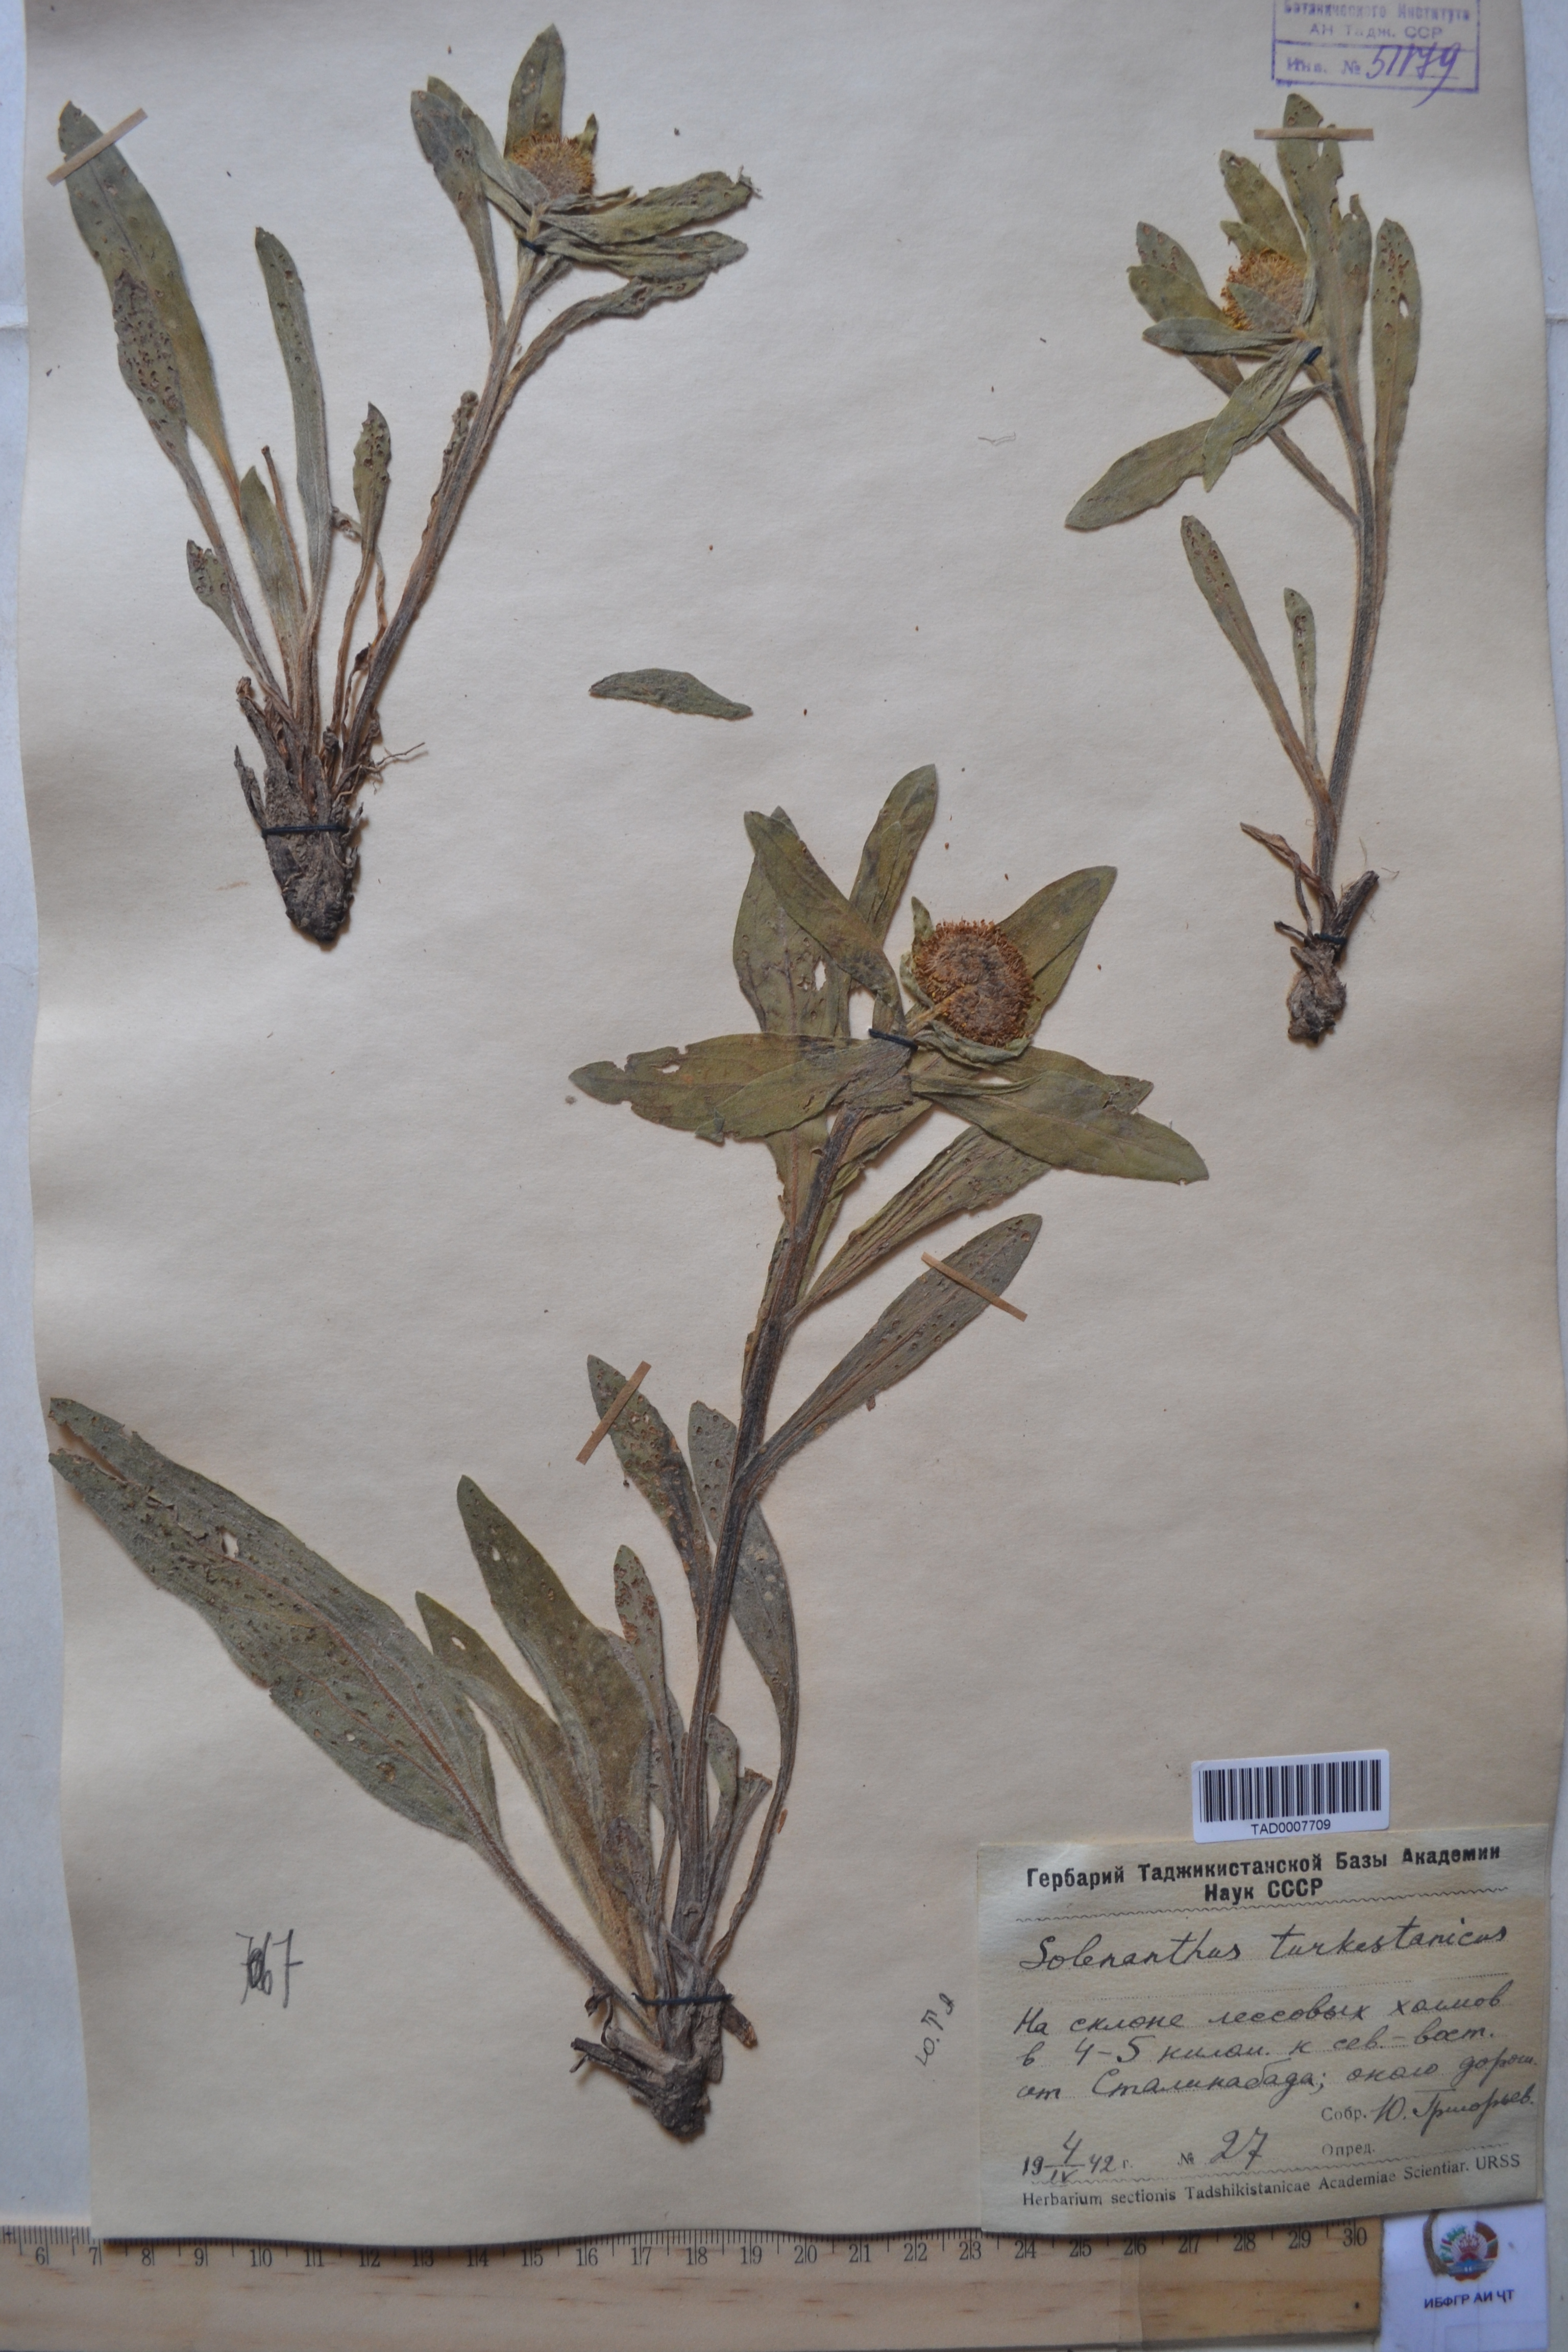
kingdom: Plantae
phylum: Tracheophyta
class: Magnoliopsida
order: Boraginales
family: Boraginaceae
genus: Solenanthus
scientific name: Solenanthus turkestanicus
